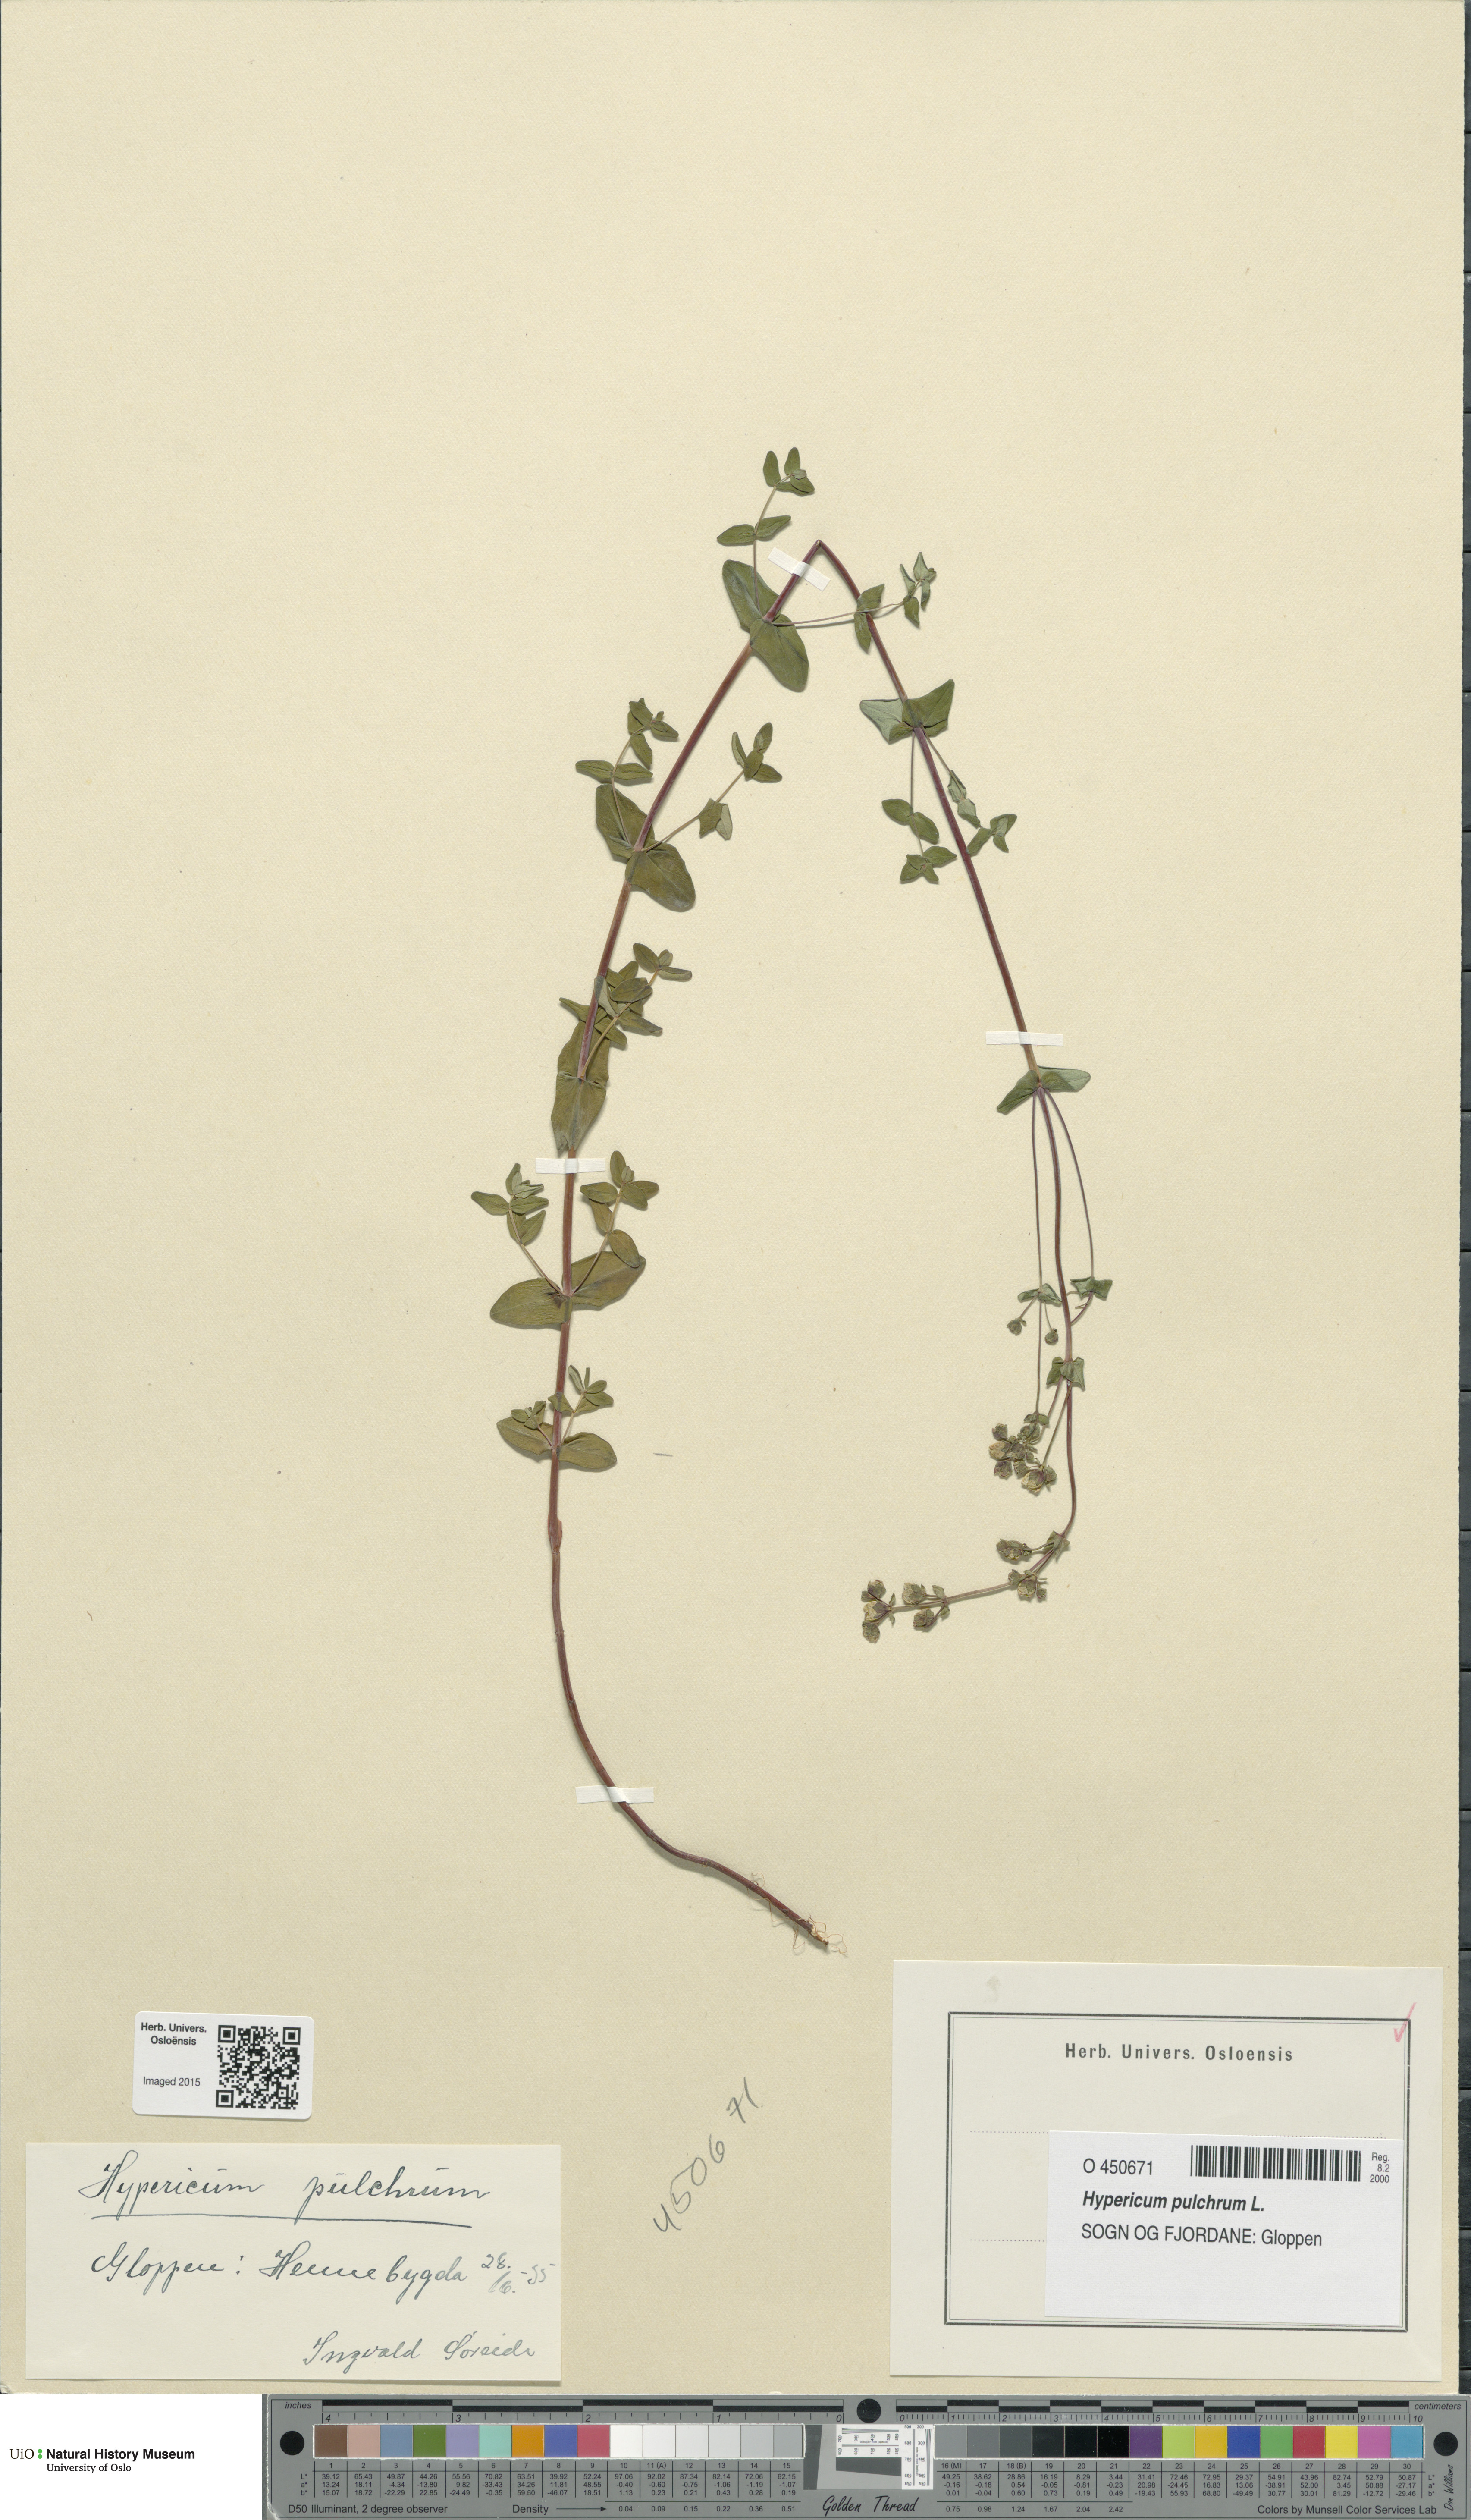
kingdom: Plantae
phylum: Tracheophyta
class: Magnoliopsida
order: Malpighiales
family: Hypericaceae
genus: Hypericum
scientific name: Hypericum pulchrum
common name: Slender st. john's-wort
